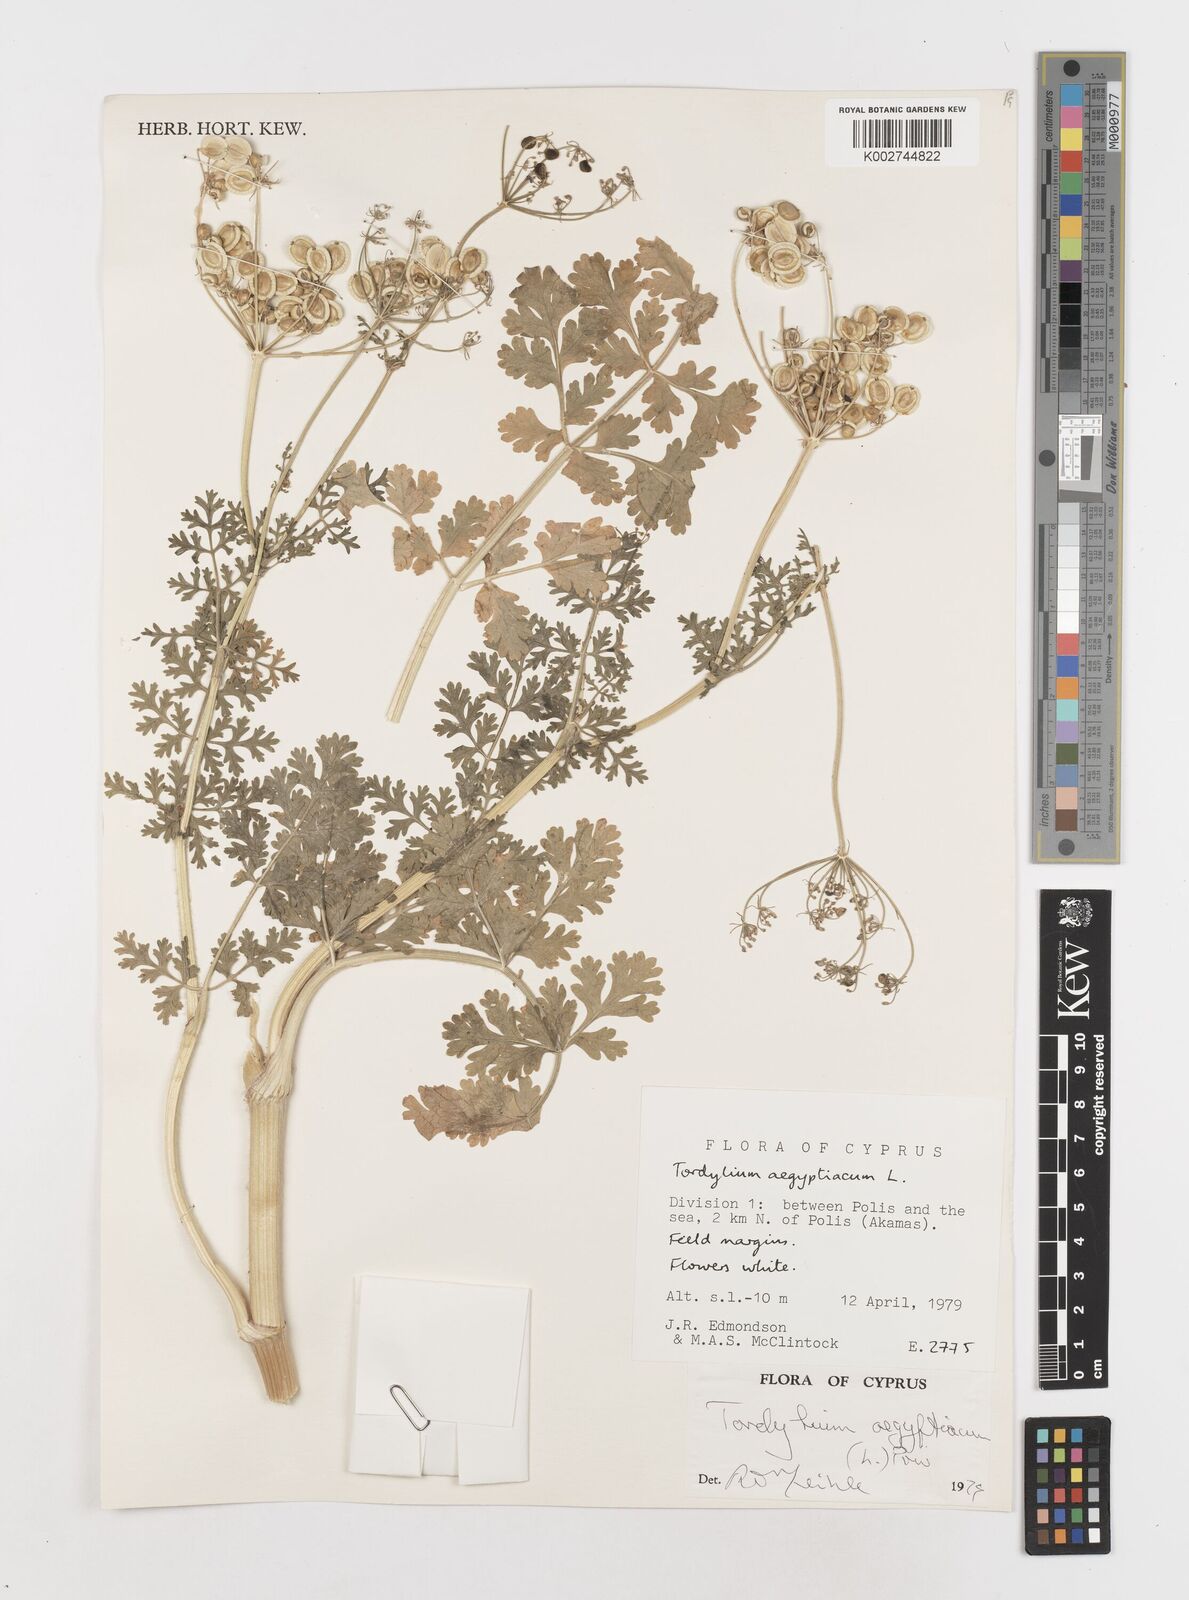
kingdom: Plantae
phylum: Tracheophyta
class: Magnoliopsida
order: Apiales
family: Apiaceae
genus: Tordylium
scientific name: Tordylium aegyptiacum
